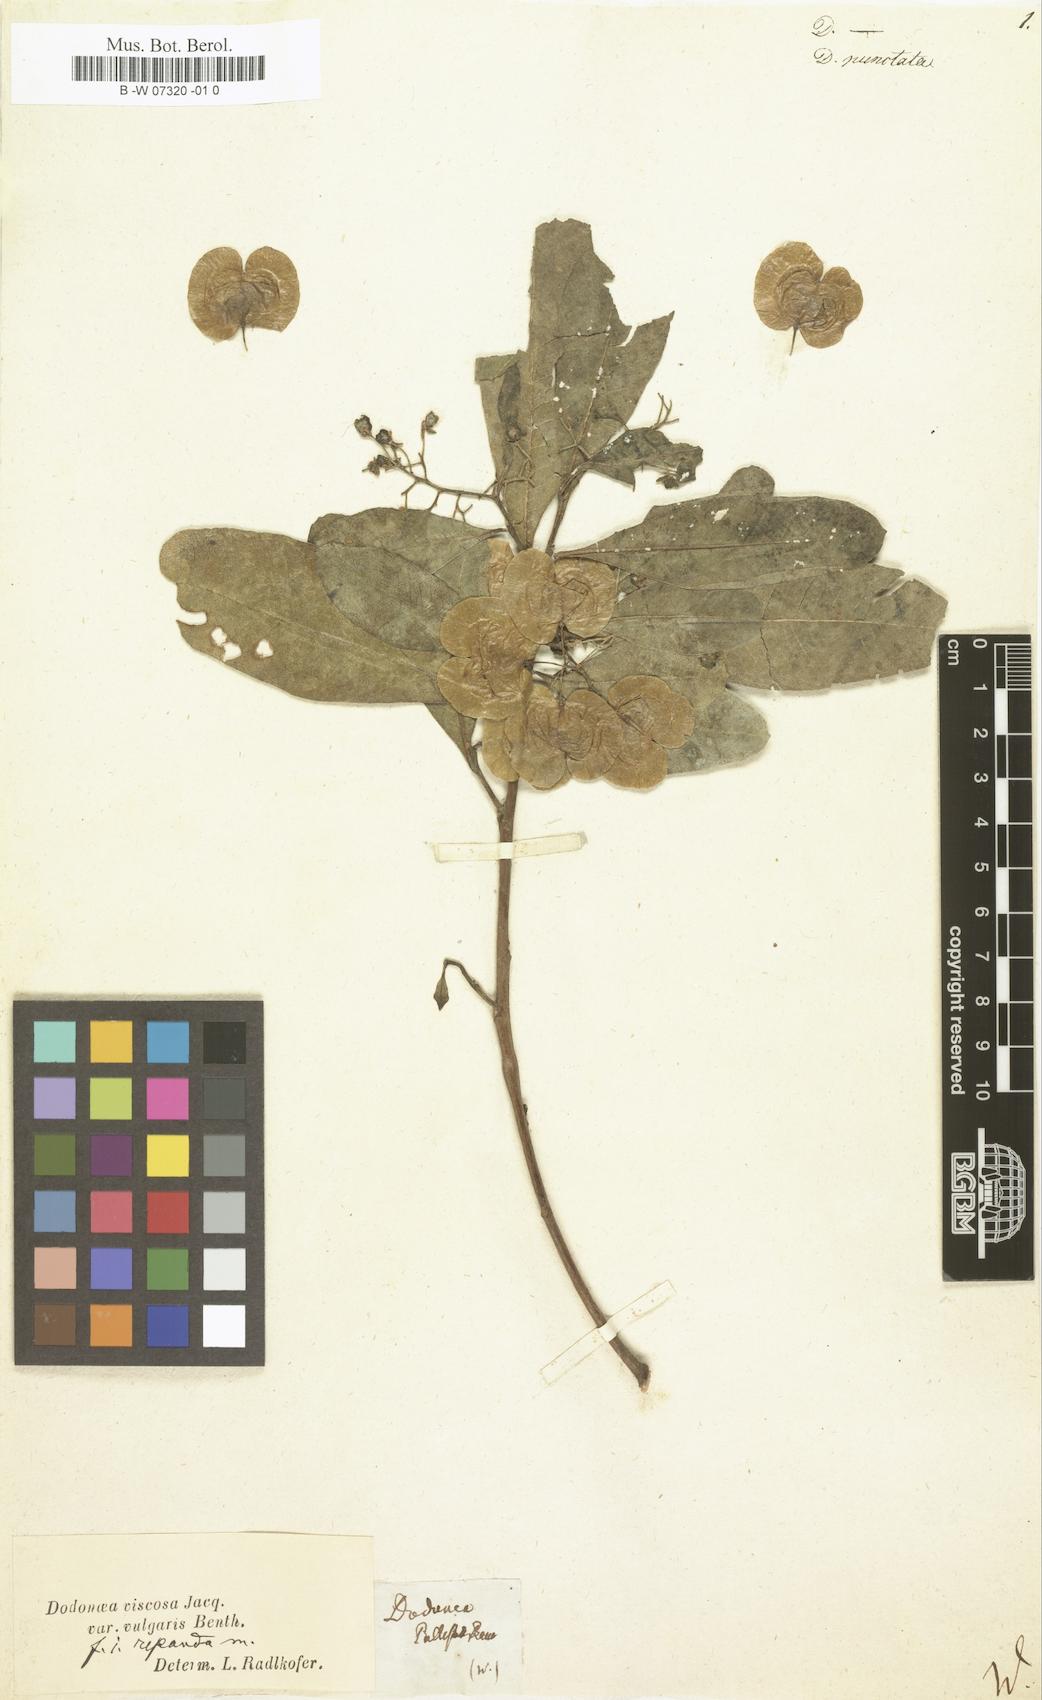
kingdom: Plantae
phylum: Tracheophyta
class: Magnoliopsida
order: Sapindales
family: Sapindaceae
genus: Dodonaea
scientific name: Dodonaea
